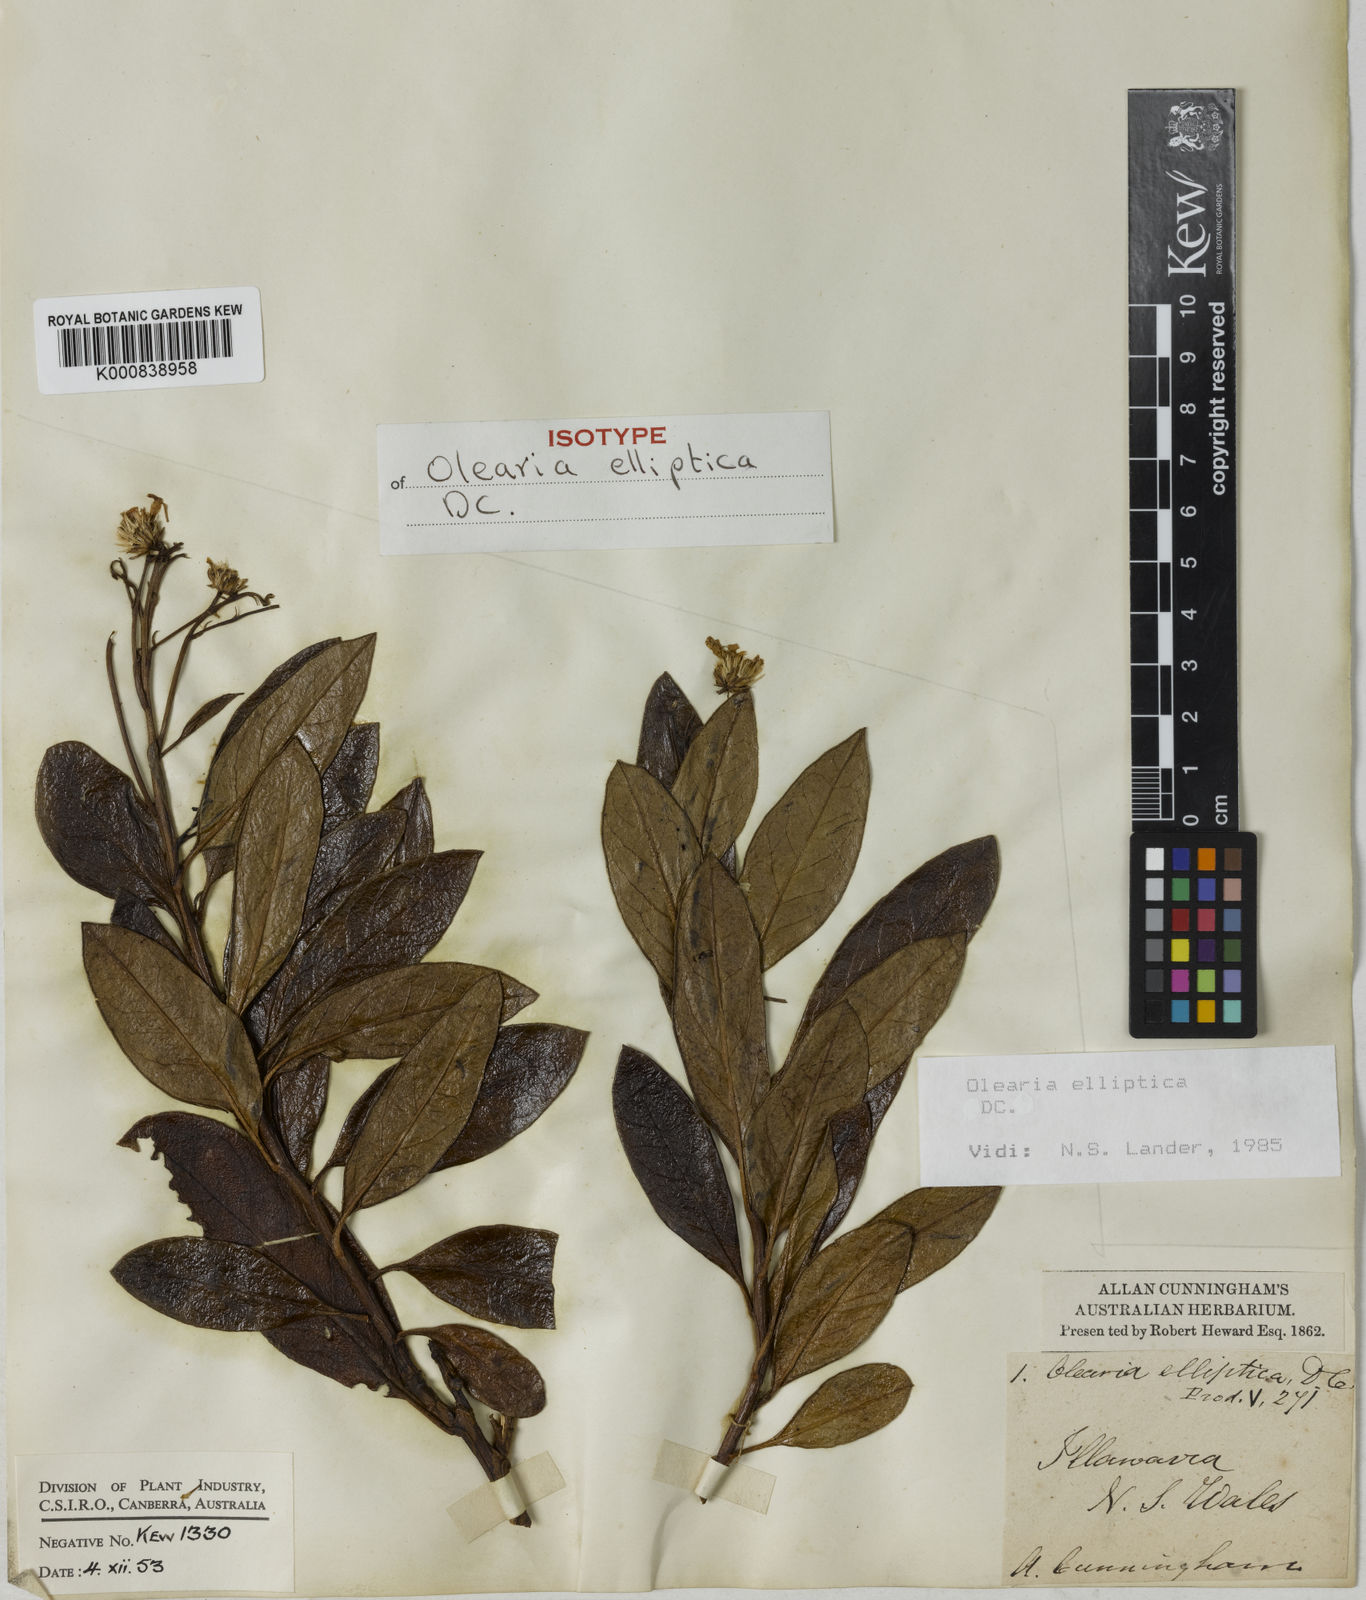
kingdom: Plantae
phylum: Tracheophyta
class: Magnoliopsida
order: Asterales
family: Asteraceae
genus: Phaseolaster
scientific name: Phaseolaster elliptica
